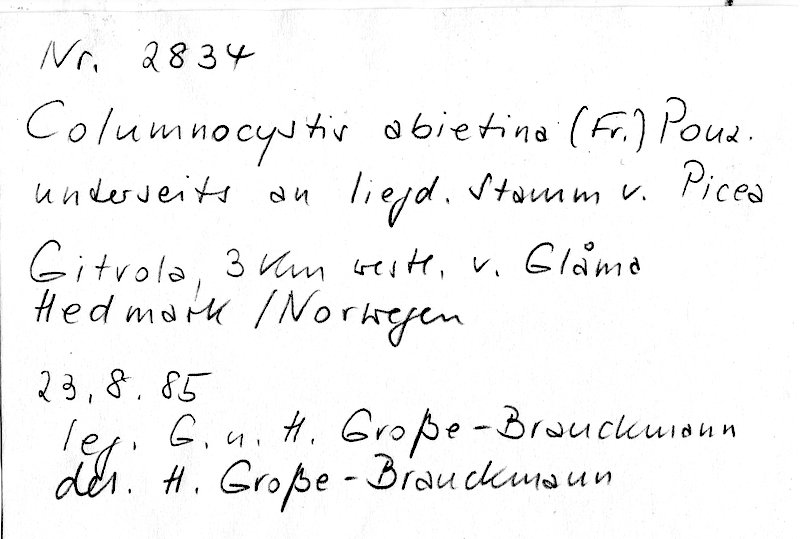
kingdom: Fungi
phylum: Basidiomycota
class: Agaricomycetes
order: Gloeophyllales
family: Gloeophyllaceae
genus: Veluticeps
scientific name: Veluticeps abietina
